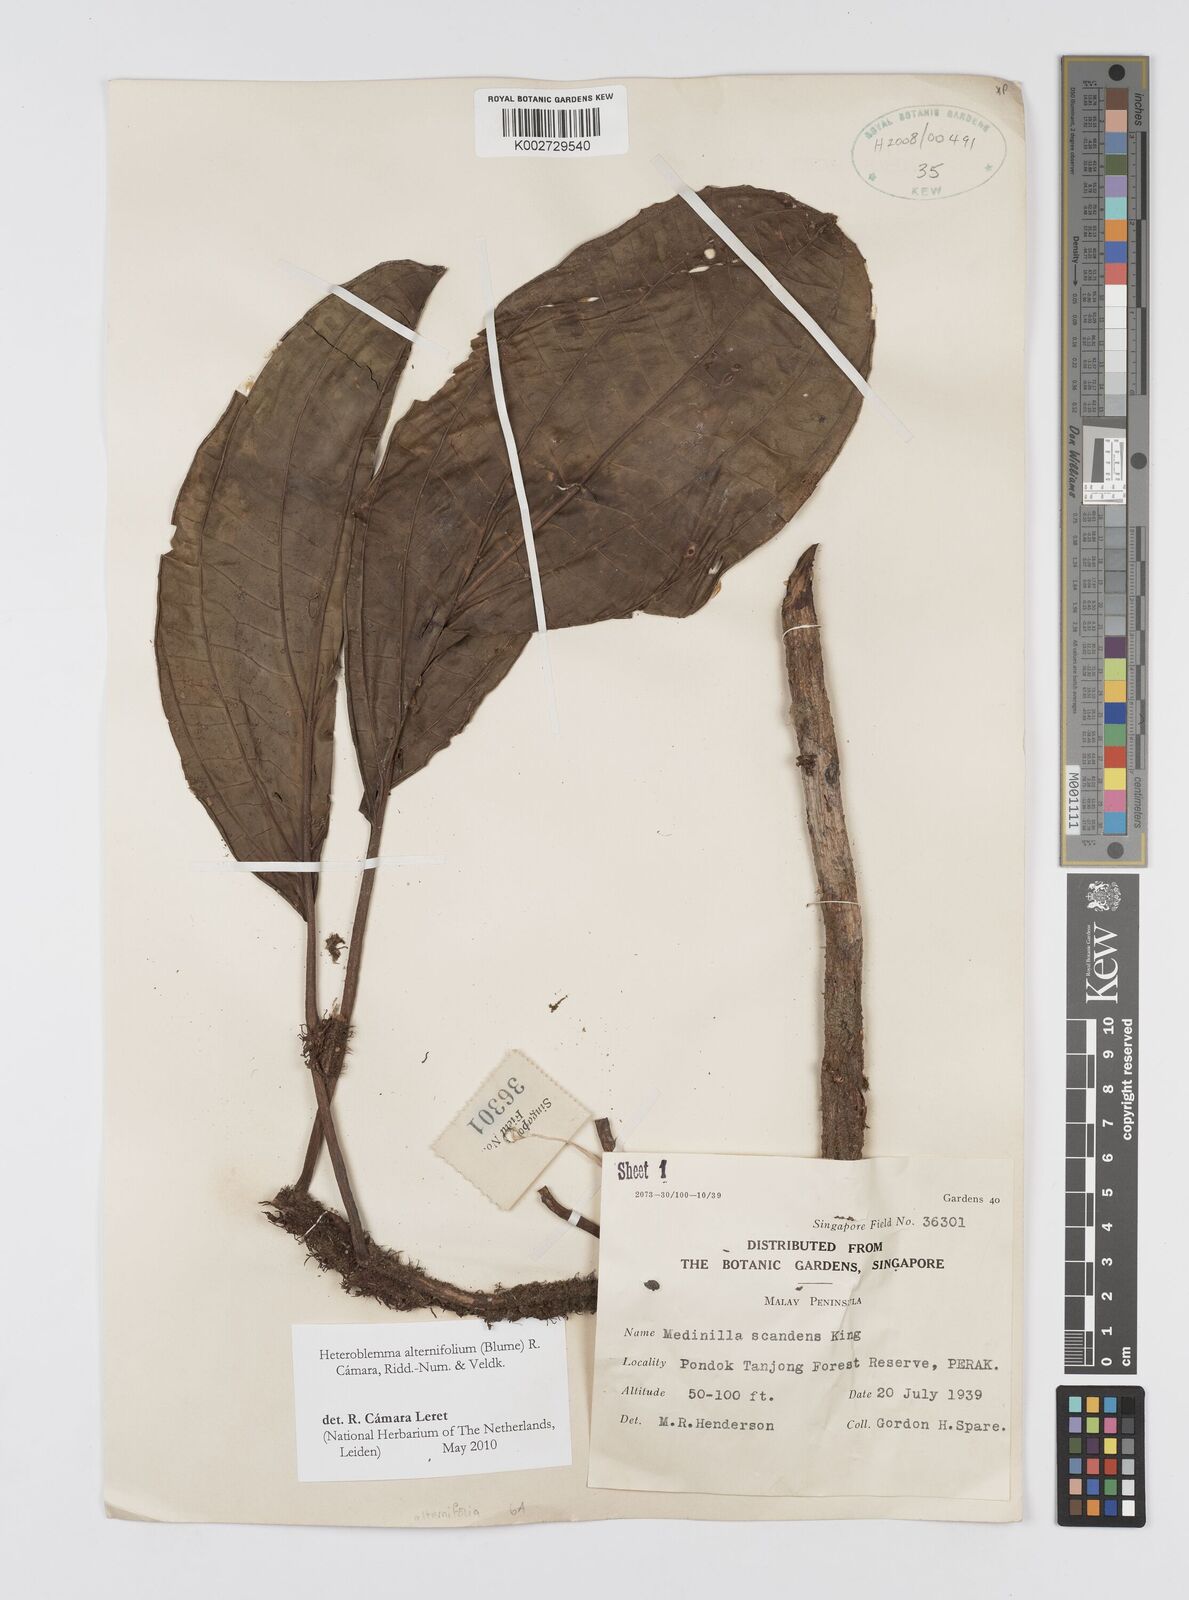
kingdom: Plantae
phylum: Tracheophyta
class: Magnoliopsida
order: Myrtales
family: Melastomataceae
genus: Heteroblemma
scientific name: Heteroblemma alternifolium
